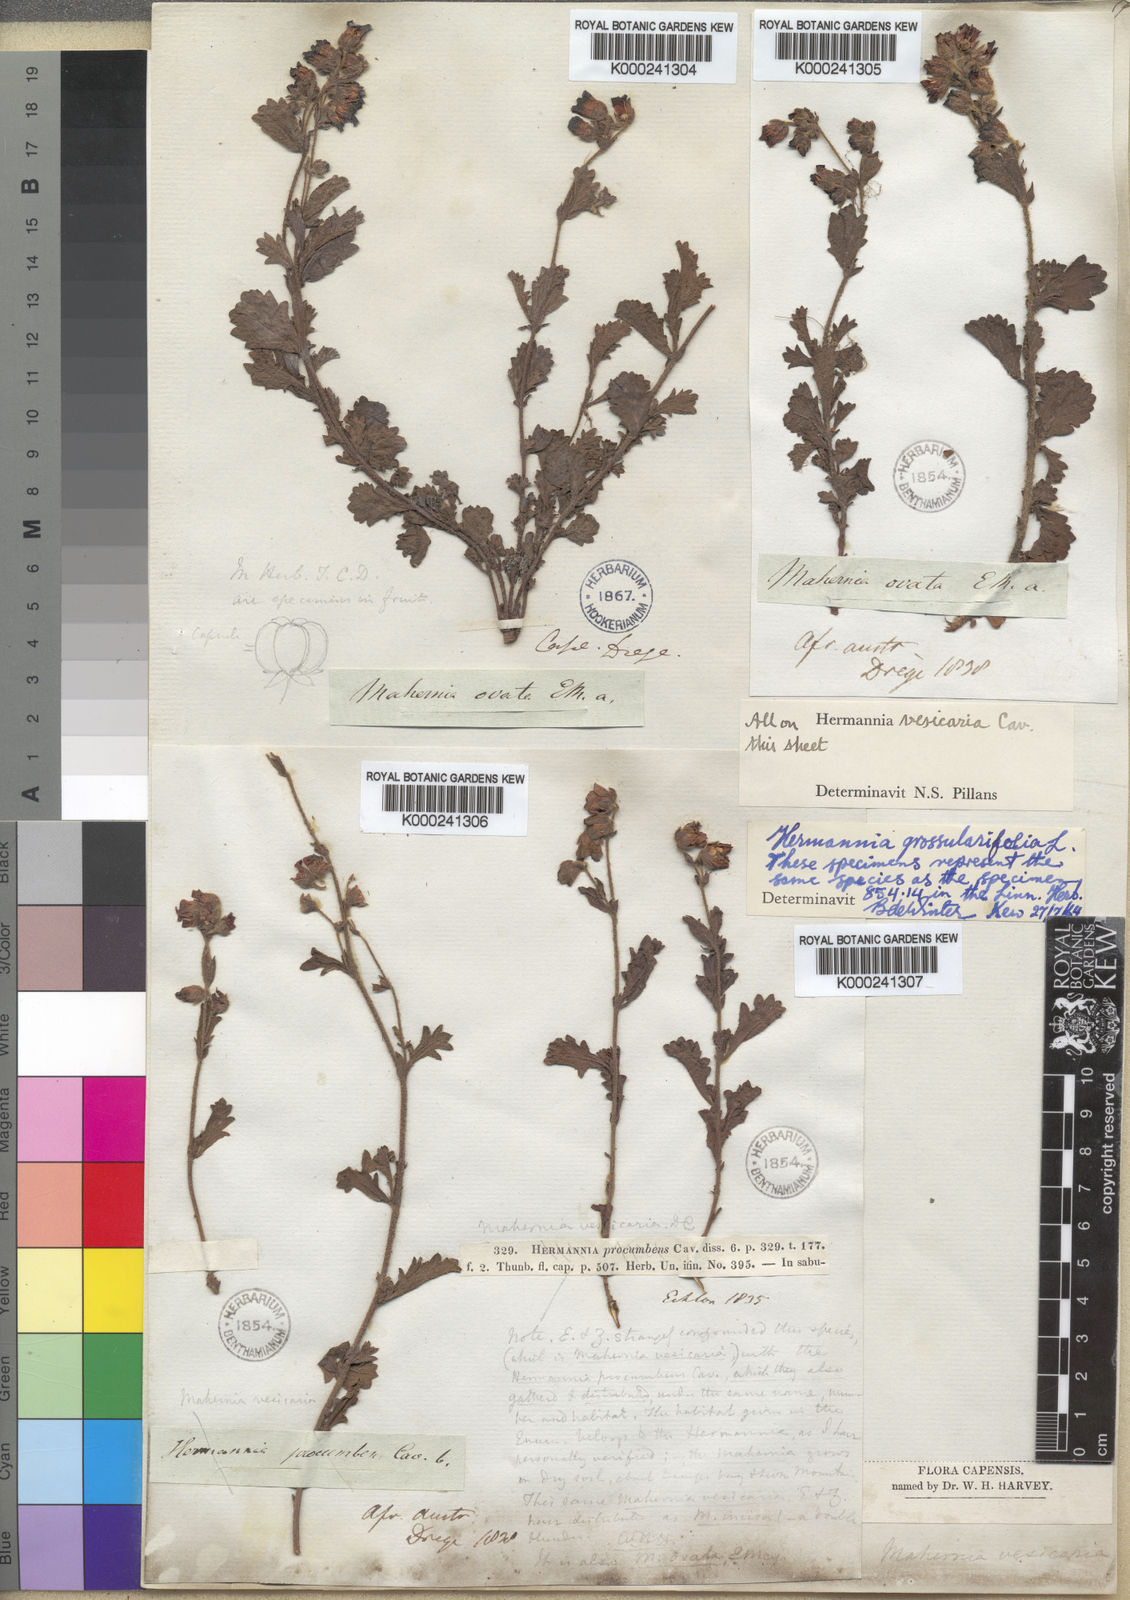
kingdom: Plantae
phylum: Tracheophyta
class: Magnoliopsida
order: Malvales
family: Malvaceae
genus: Hermannia
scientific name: Hermannia grossularifolia
